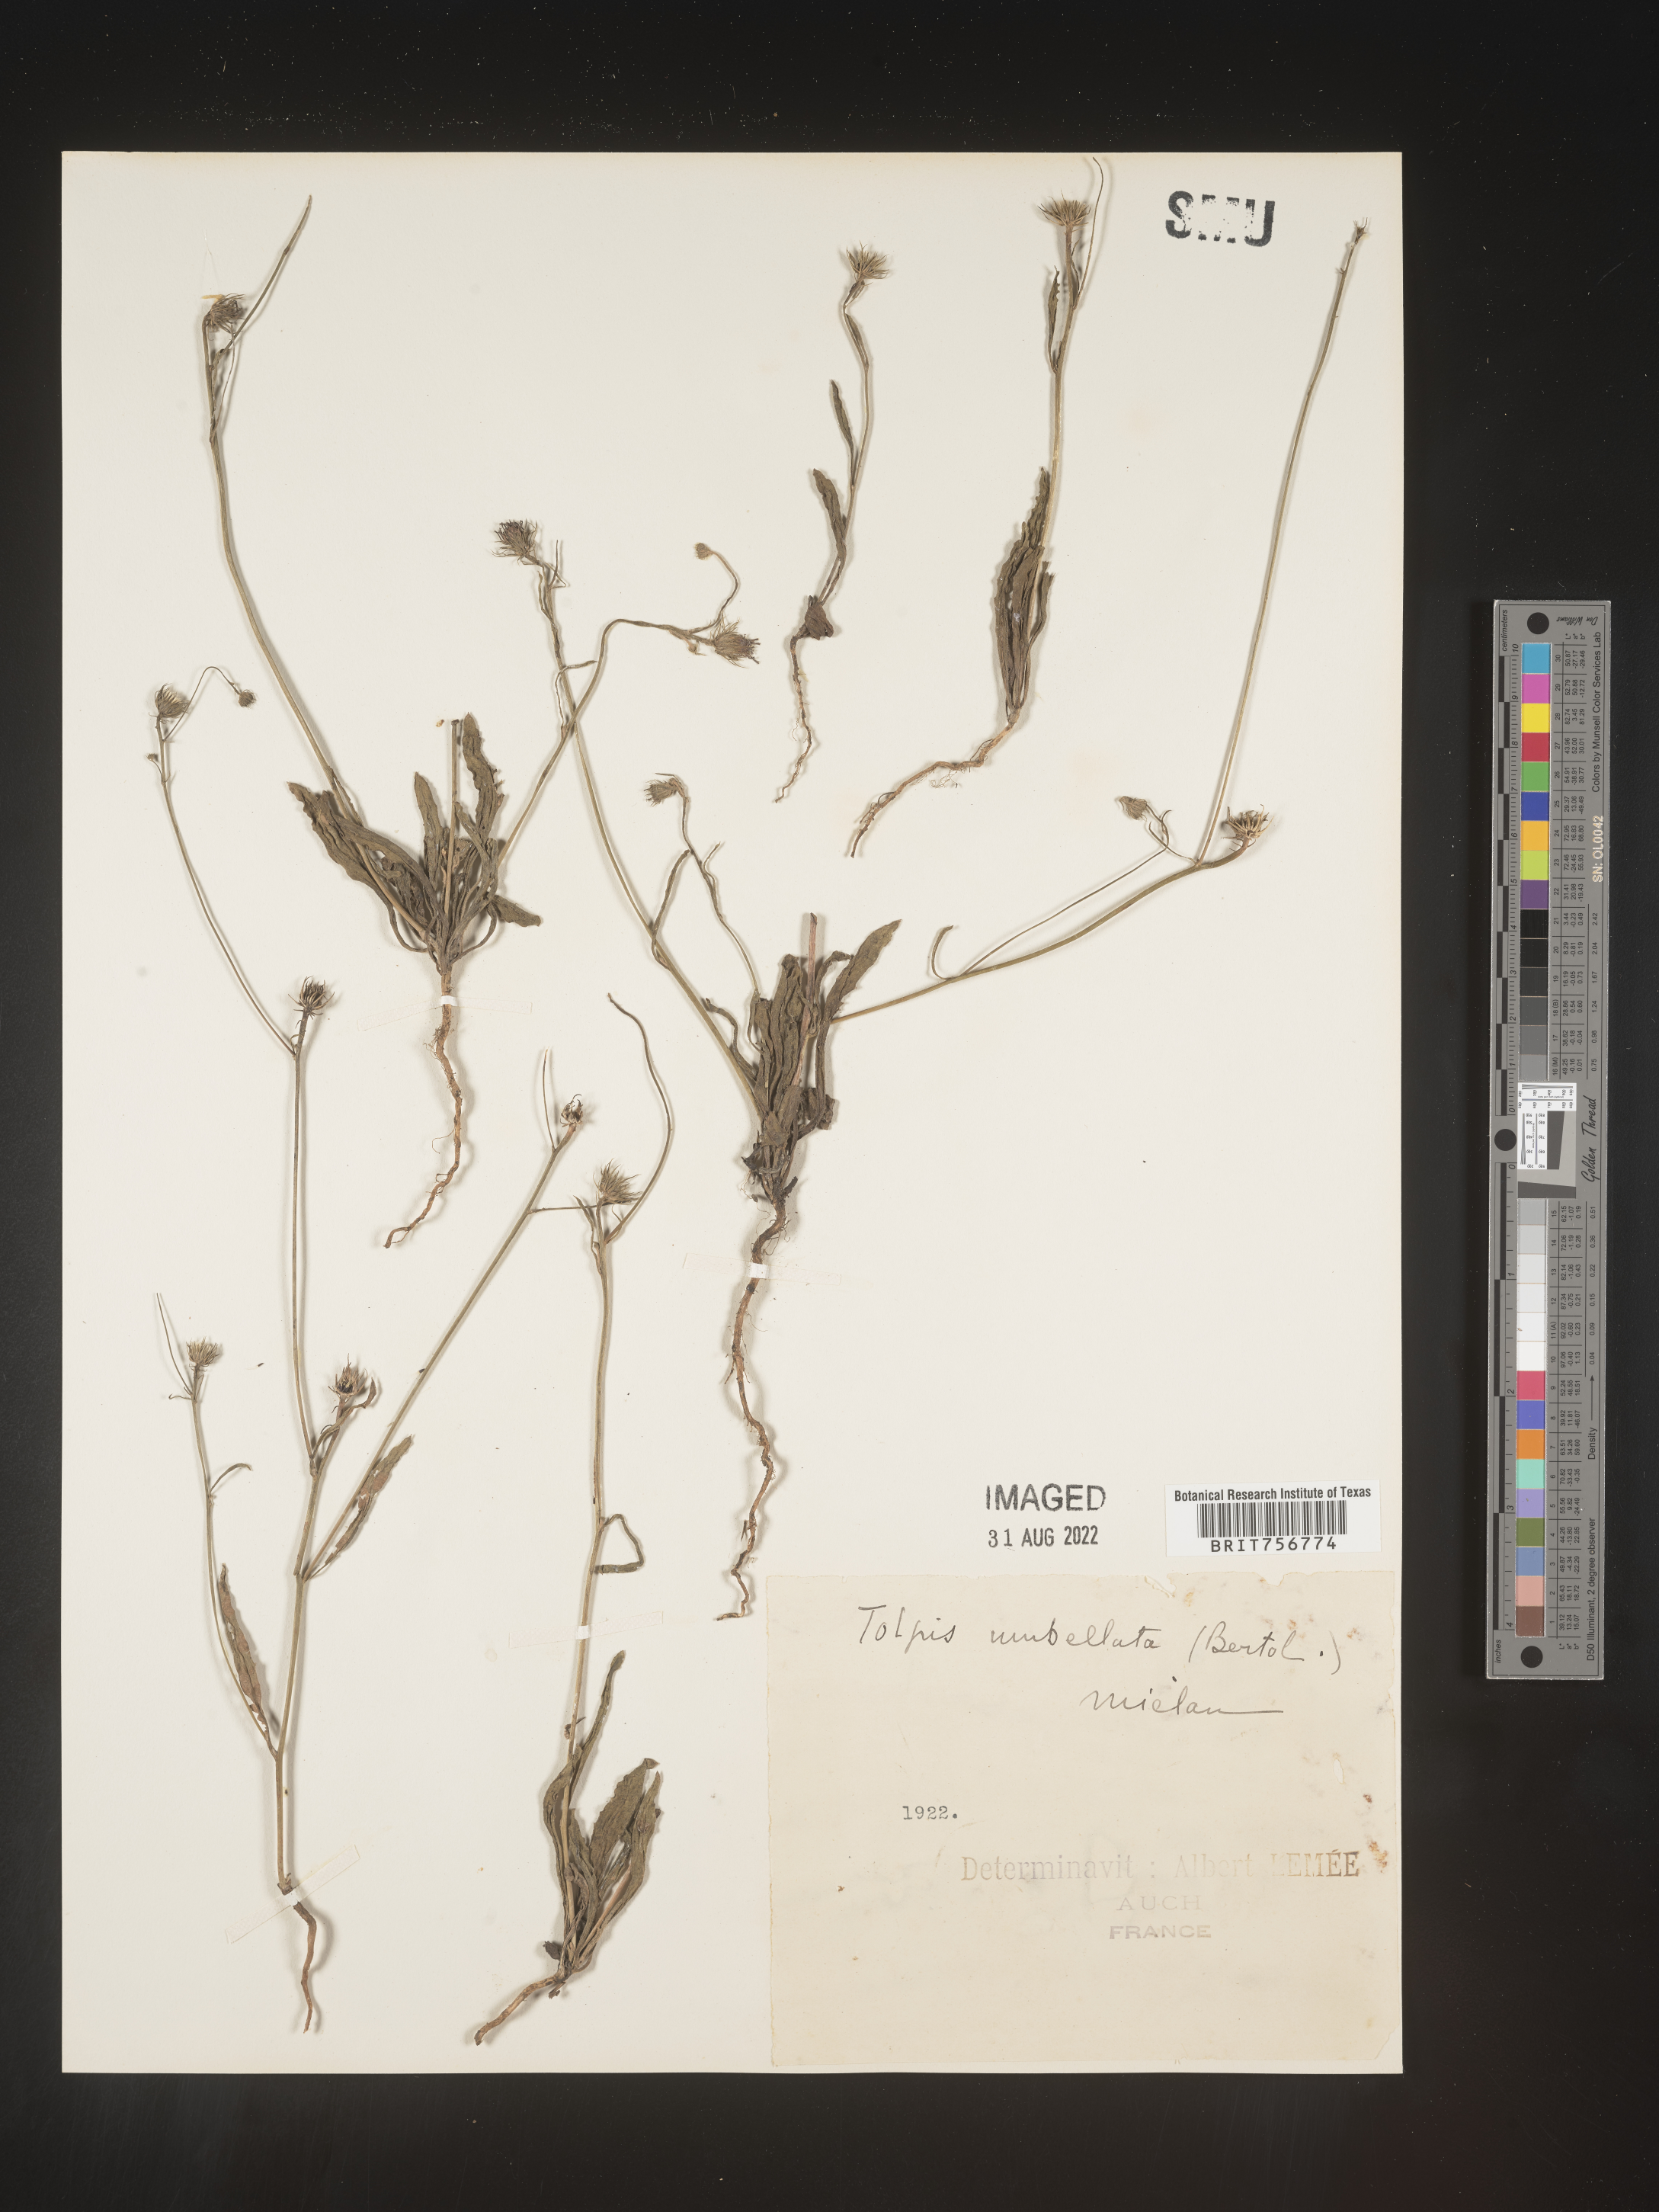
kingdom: Plantae
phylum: Tracheophyta
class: Magnoliopsida
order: Asterales
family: Asteraceae
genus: Tolpis
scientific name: Tolpis
